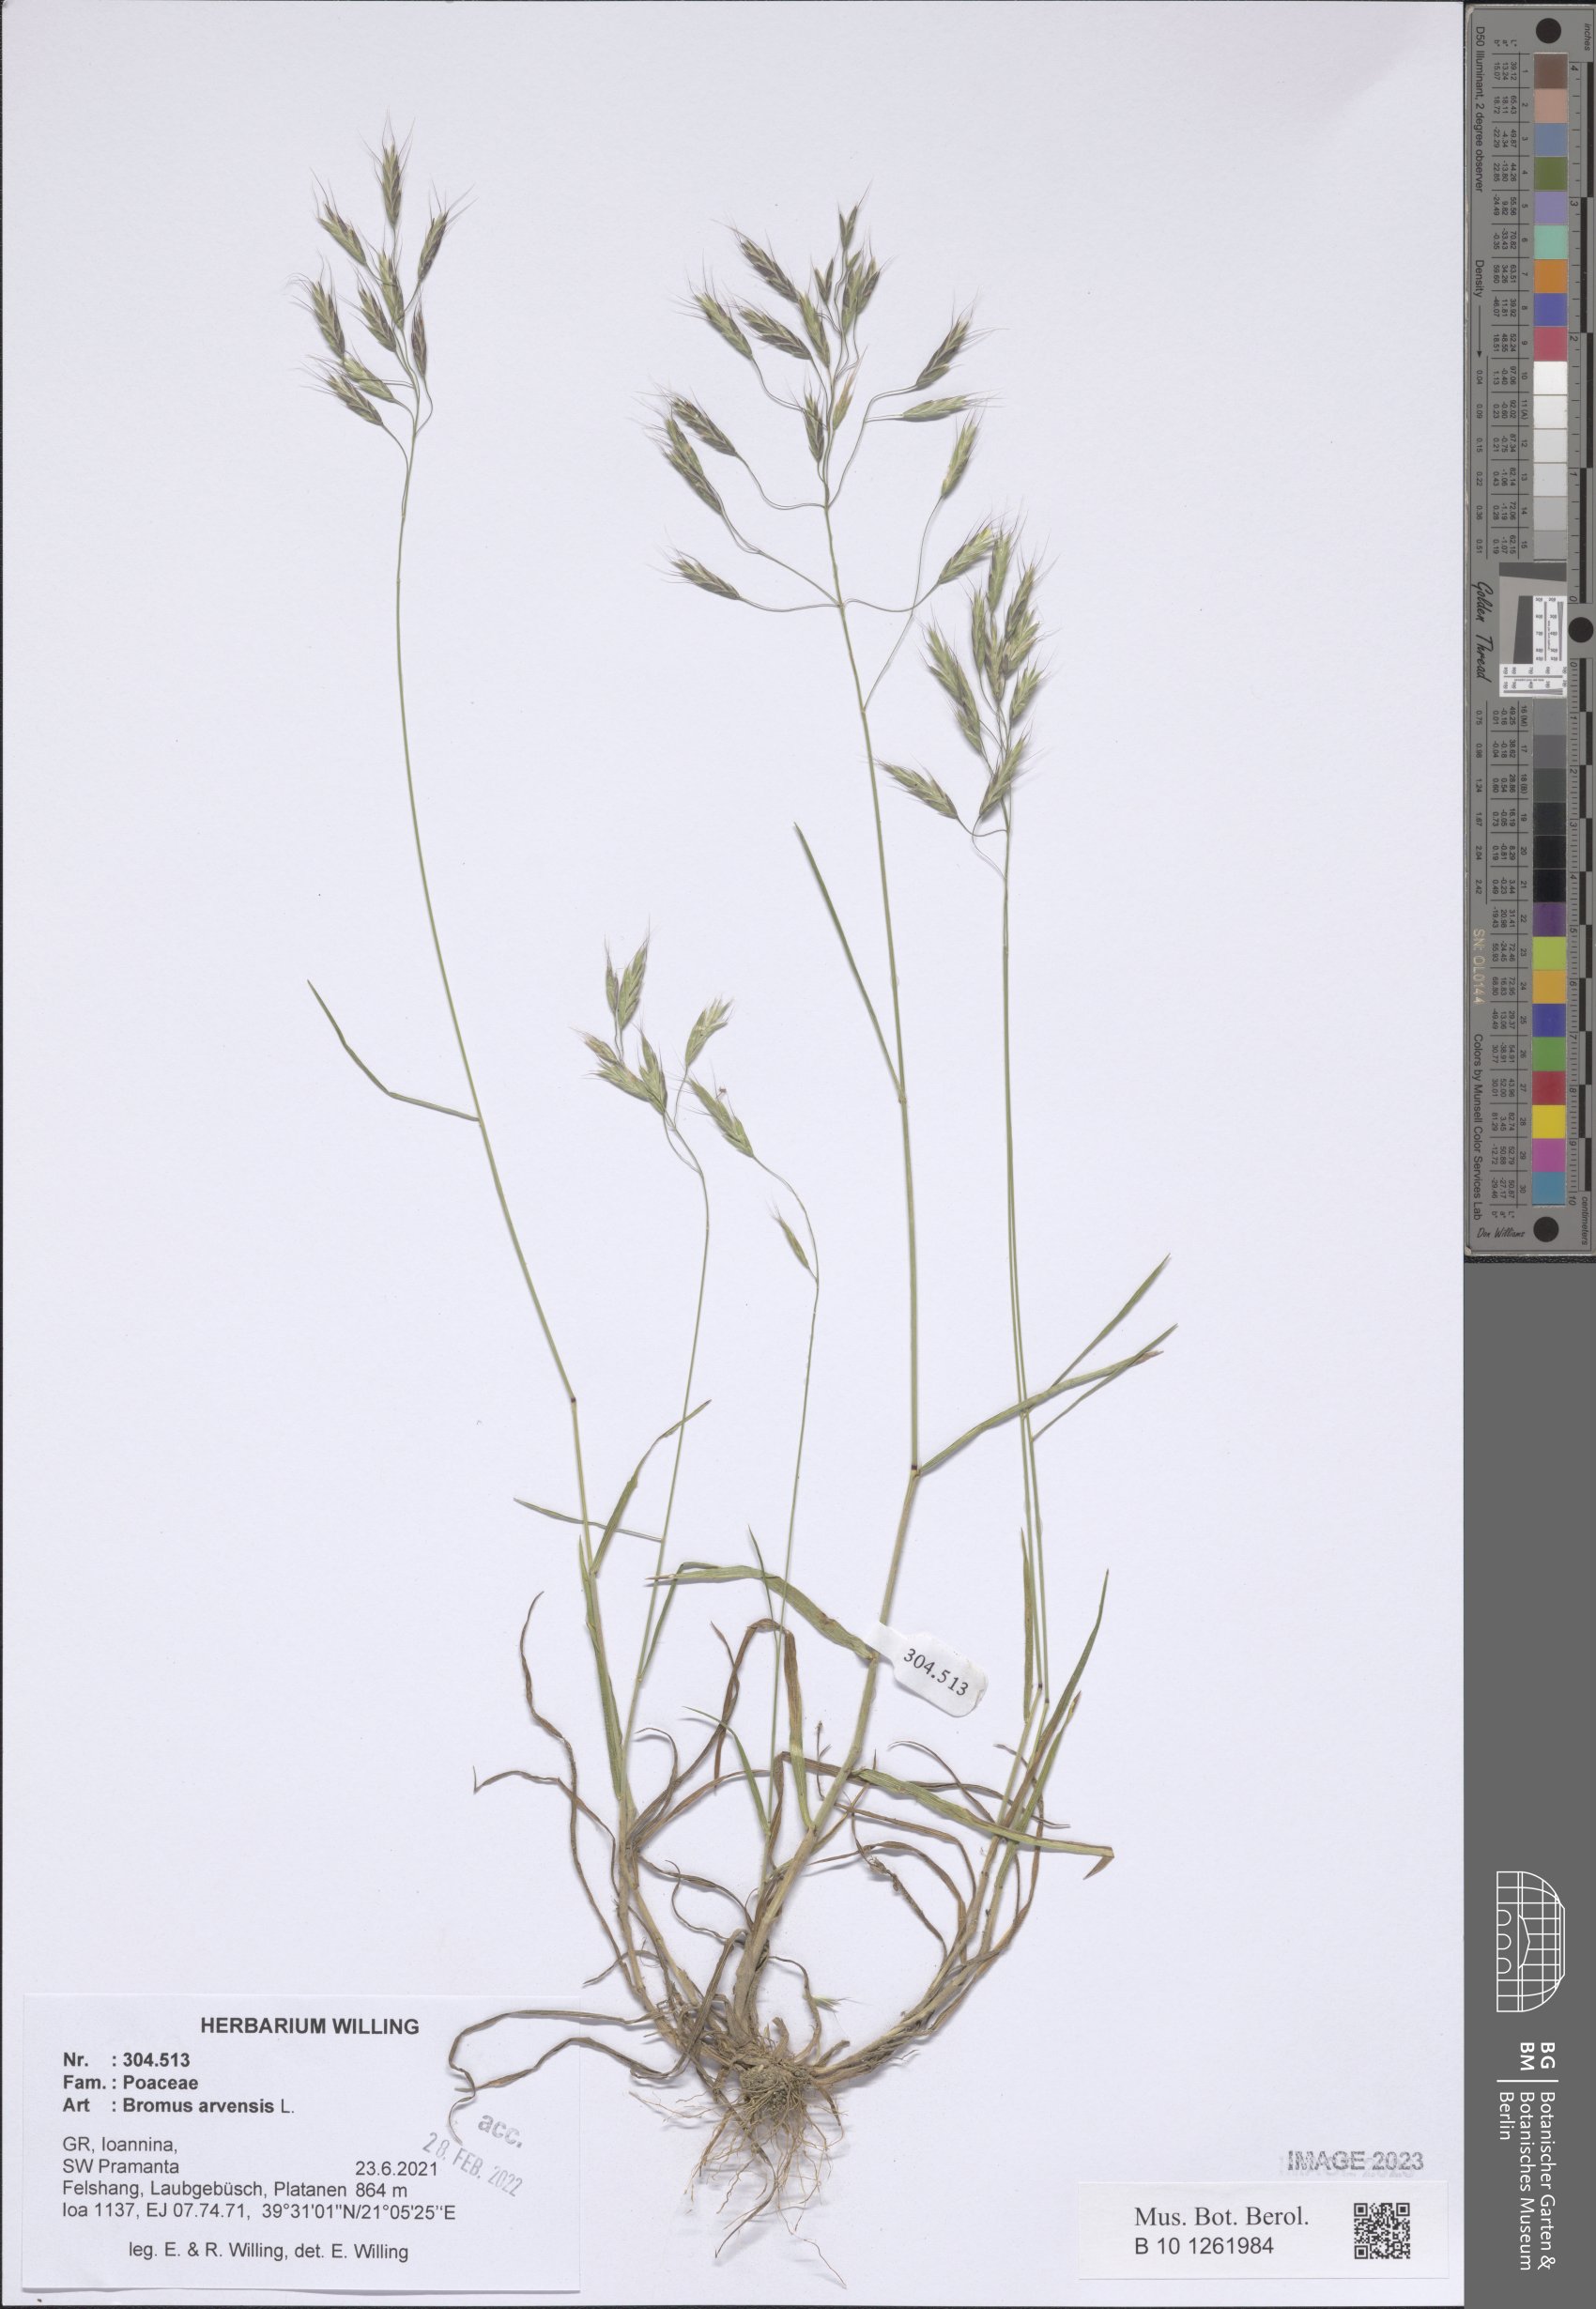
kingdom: Plantae
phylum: Tracheophyta
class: Liliopsida
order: Poales
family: Poaceae
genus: Bromus
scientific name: Bromus arvensis
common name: Field brome
